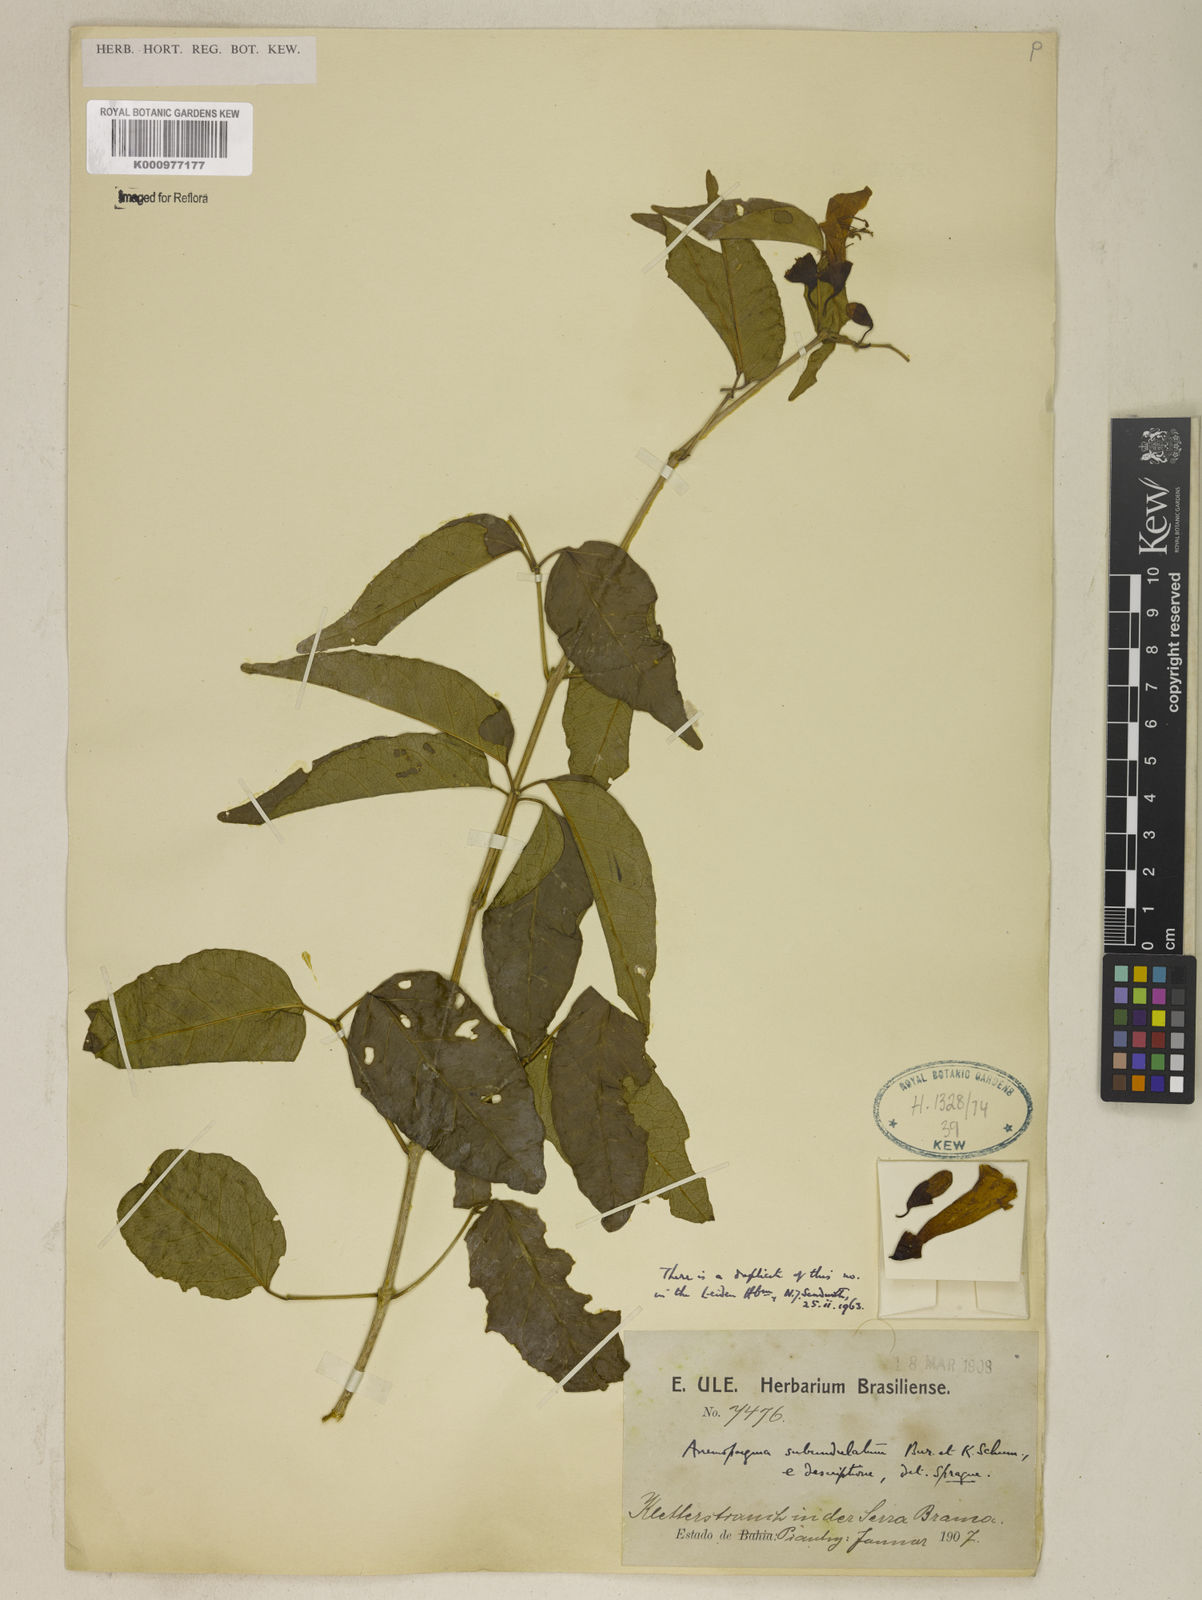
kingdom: Plantae
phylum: Tracheophyta
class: Magnoliopsida
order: Lamiales
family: Bignoniaceae
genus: Anemopaegma
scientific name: Anemopaegma gracile
